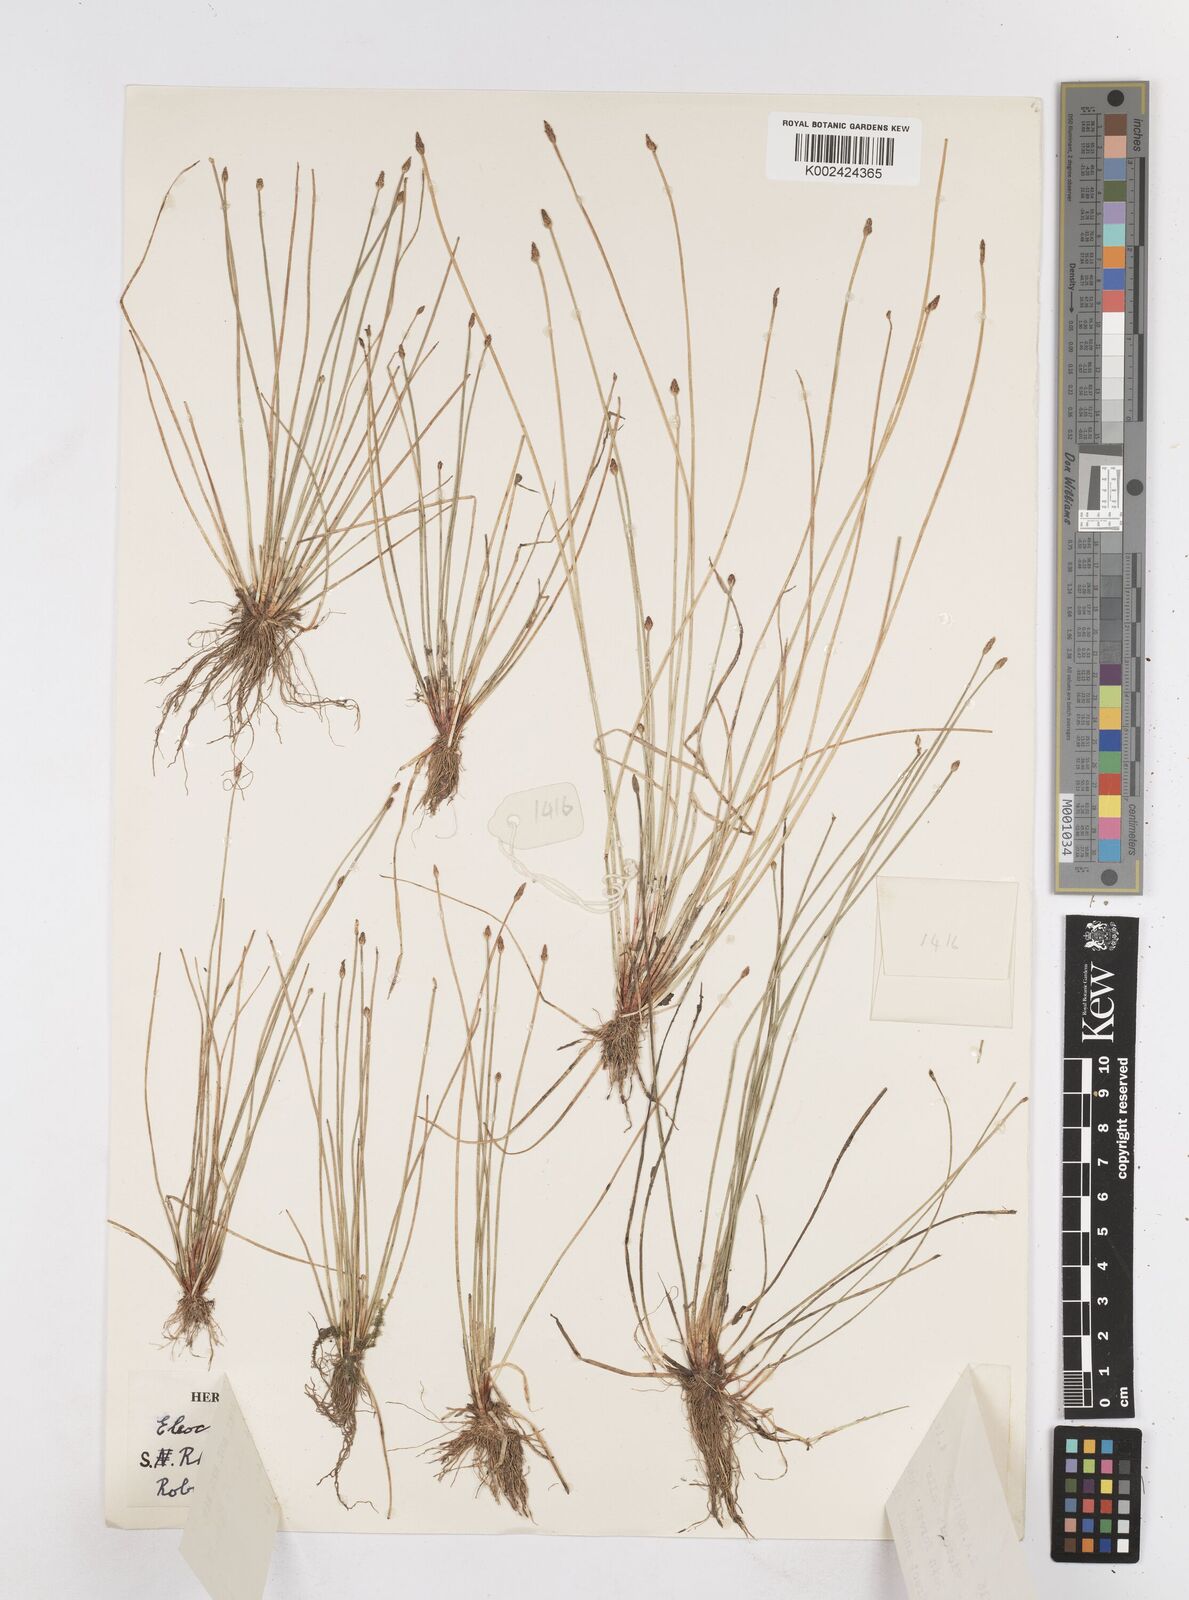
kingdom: Plantae
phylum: Tracheophyta
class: Liliopsida
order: Poales
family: Cyperaceae
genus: Eleocharis
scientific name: Eleocharis caduca
